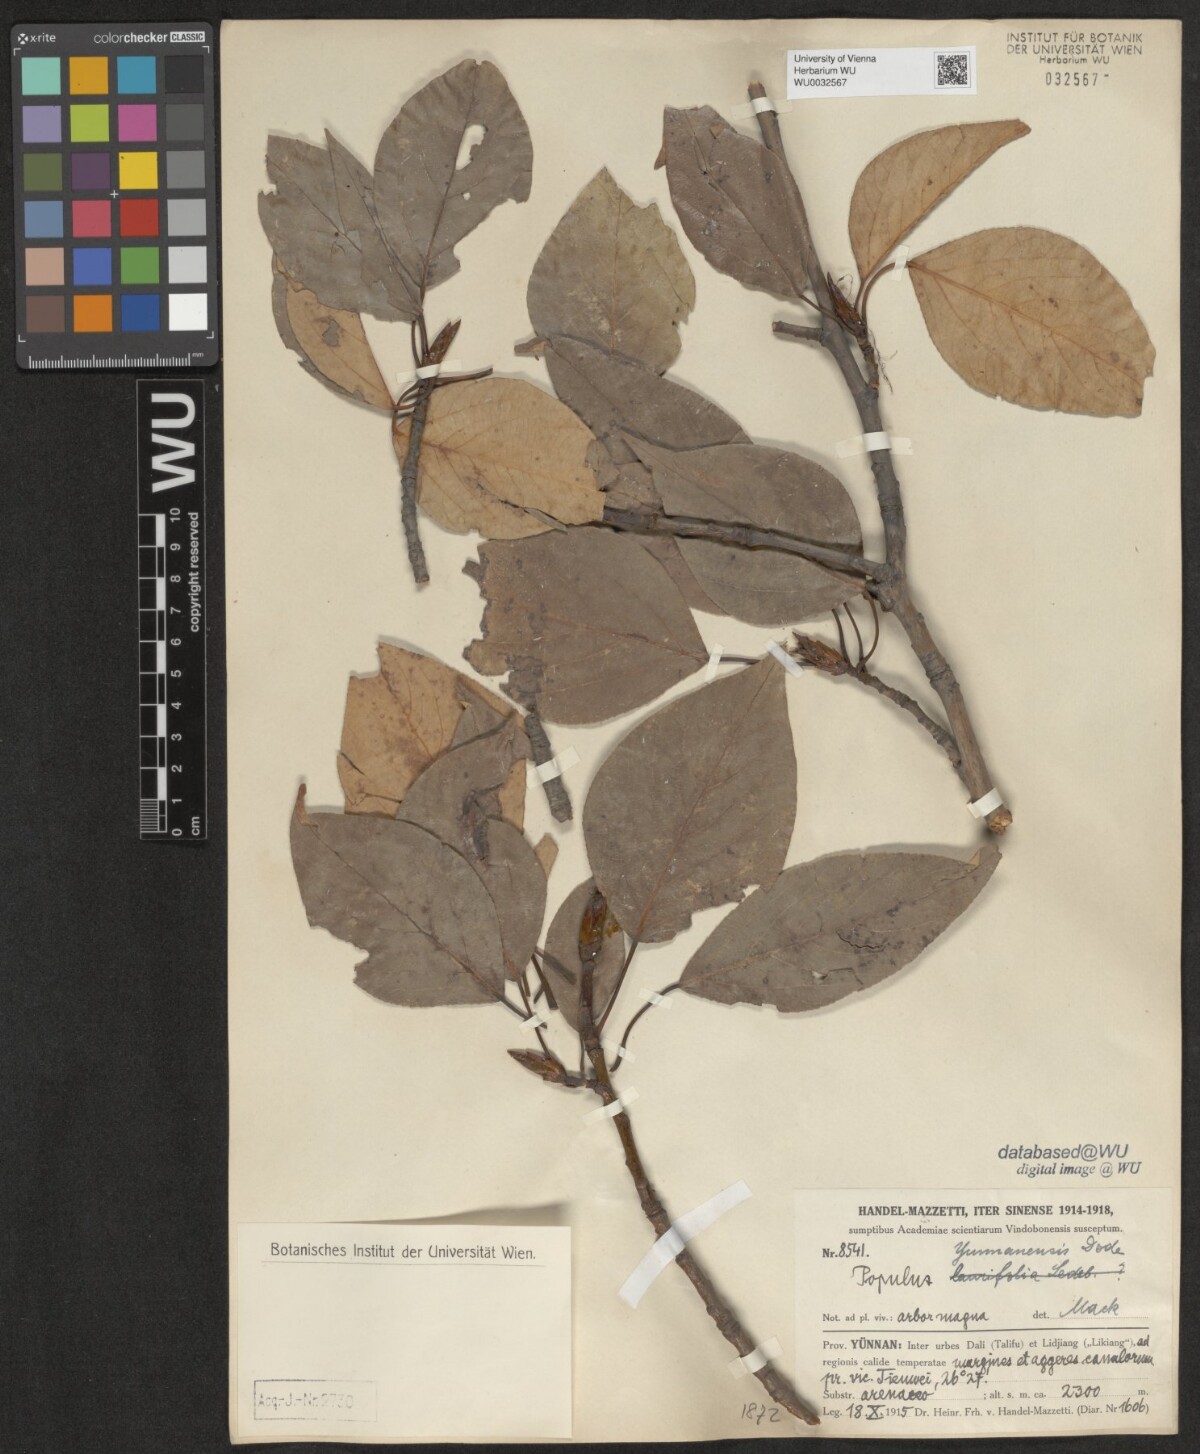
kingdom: Plantae
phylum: Tracheophyta
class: Magnoliopsida
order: Malpighiales
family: Salicaceae
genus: Populus
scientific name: Populus yunnanensis
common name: Yunnan poplar
